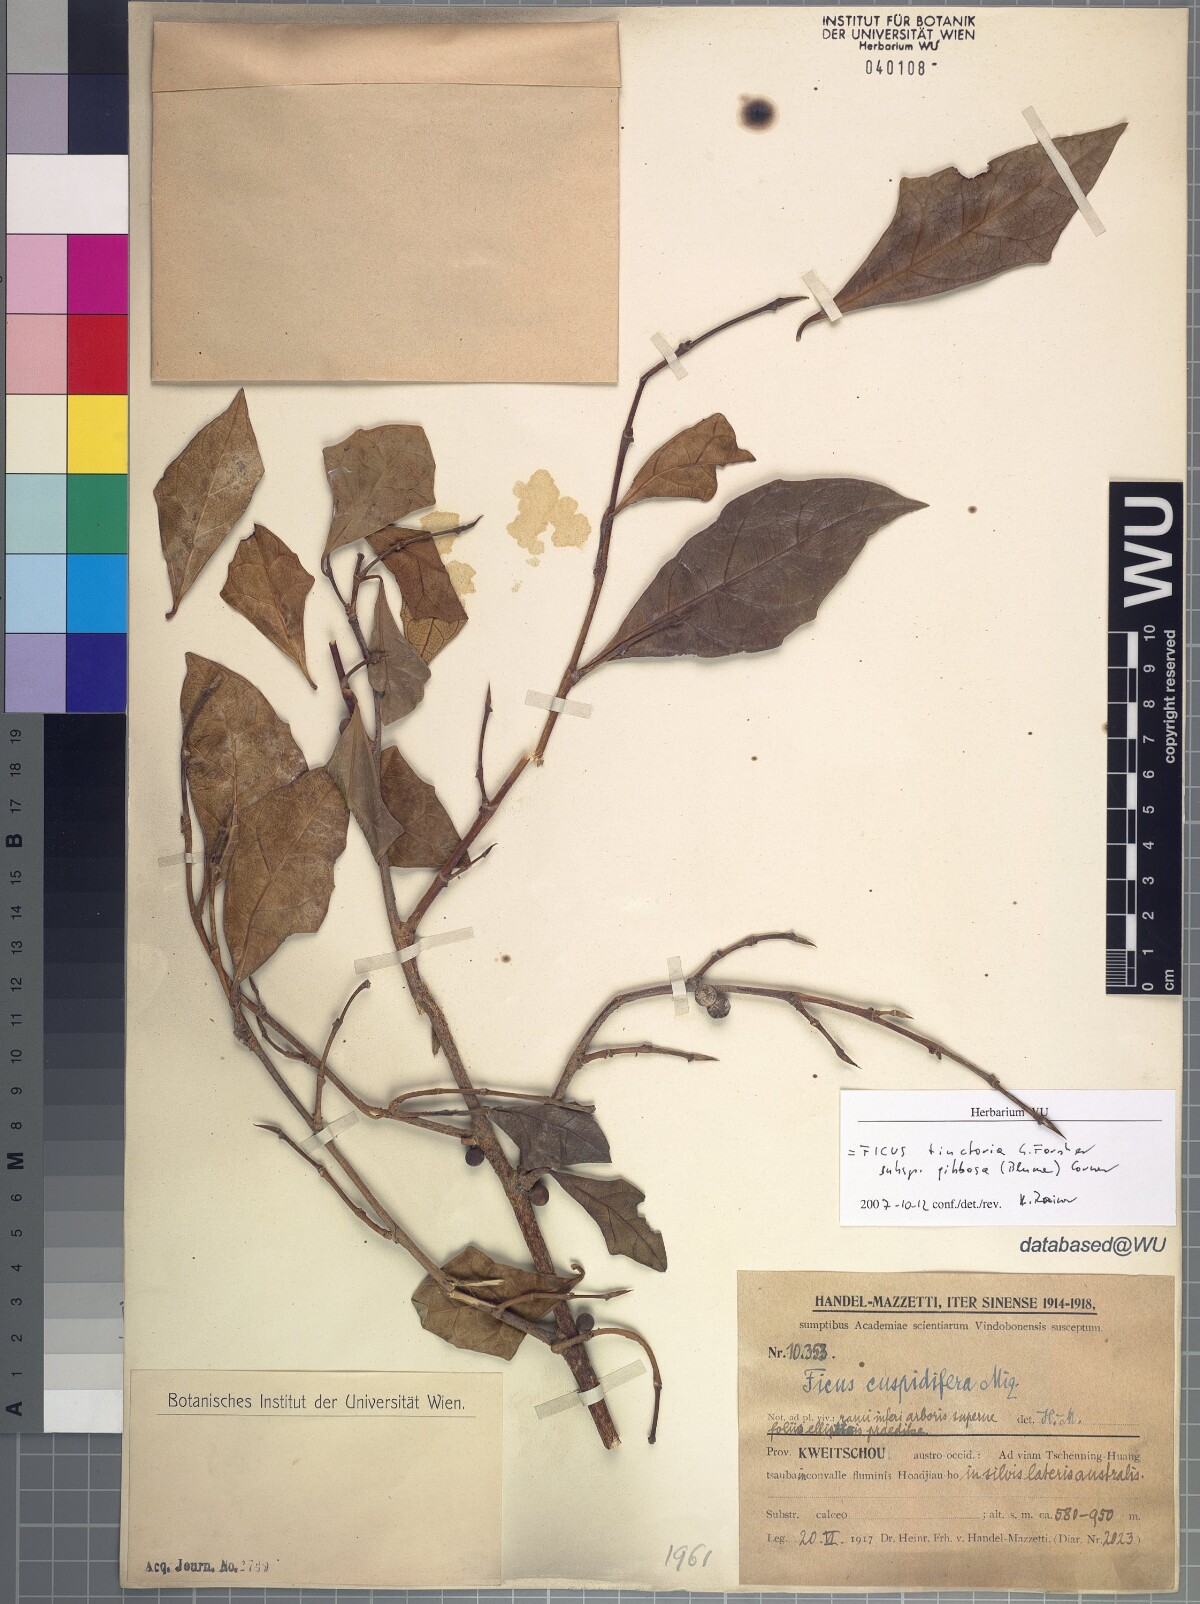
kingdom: Plantae
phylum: Tracheophyta
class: Magnoliopsida
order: Rosales
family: Moraceae
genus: Ficus
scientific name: Ficus tinctoria
